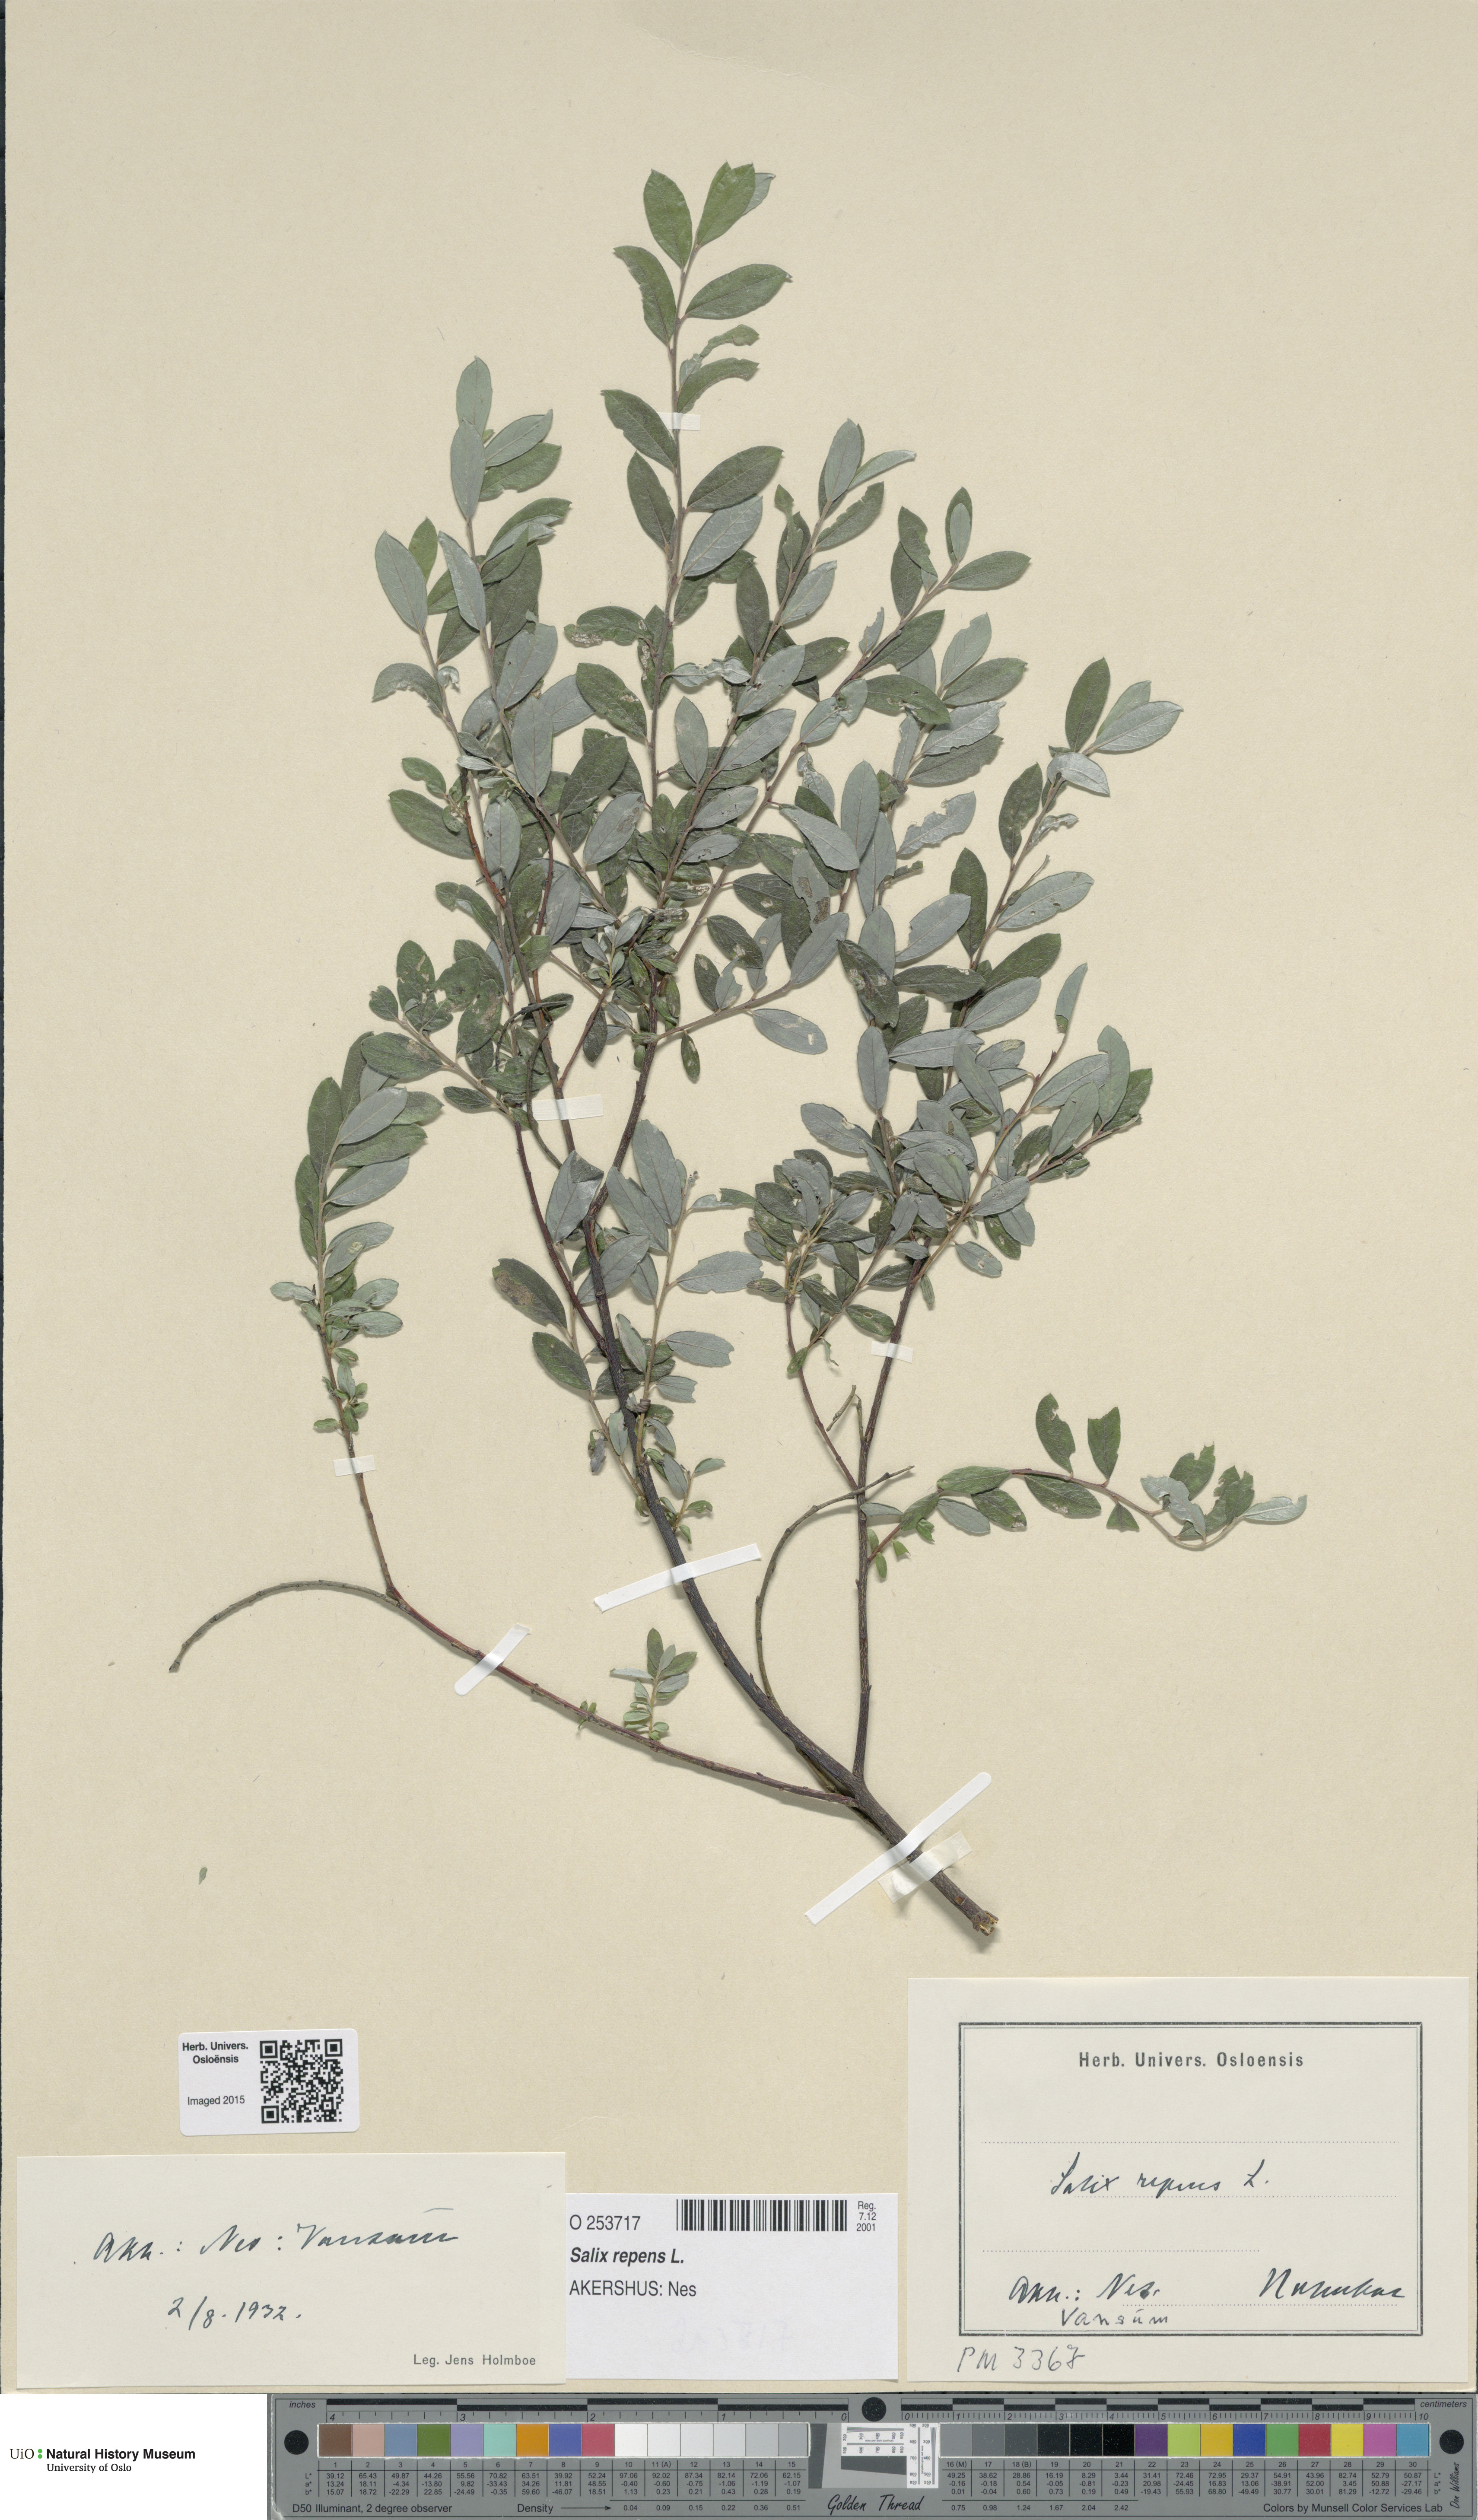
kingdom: Plantae
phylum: Tracheophyta
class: Magnoliopsida
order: Malpighiales
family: Salicaceae
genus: Salix
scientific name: Salix repens
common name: Creeping willow
